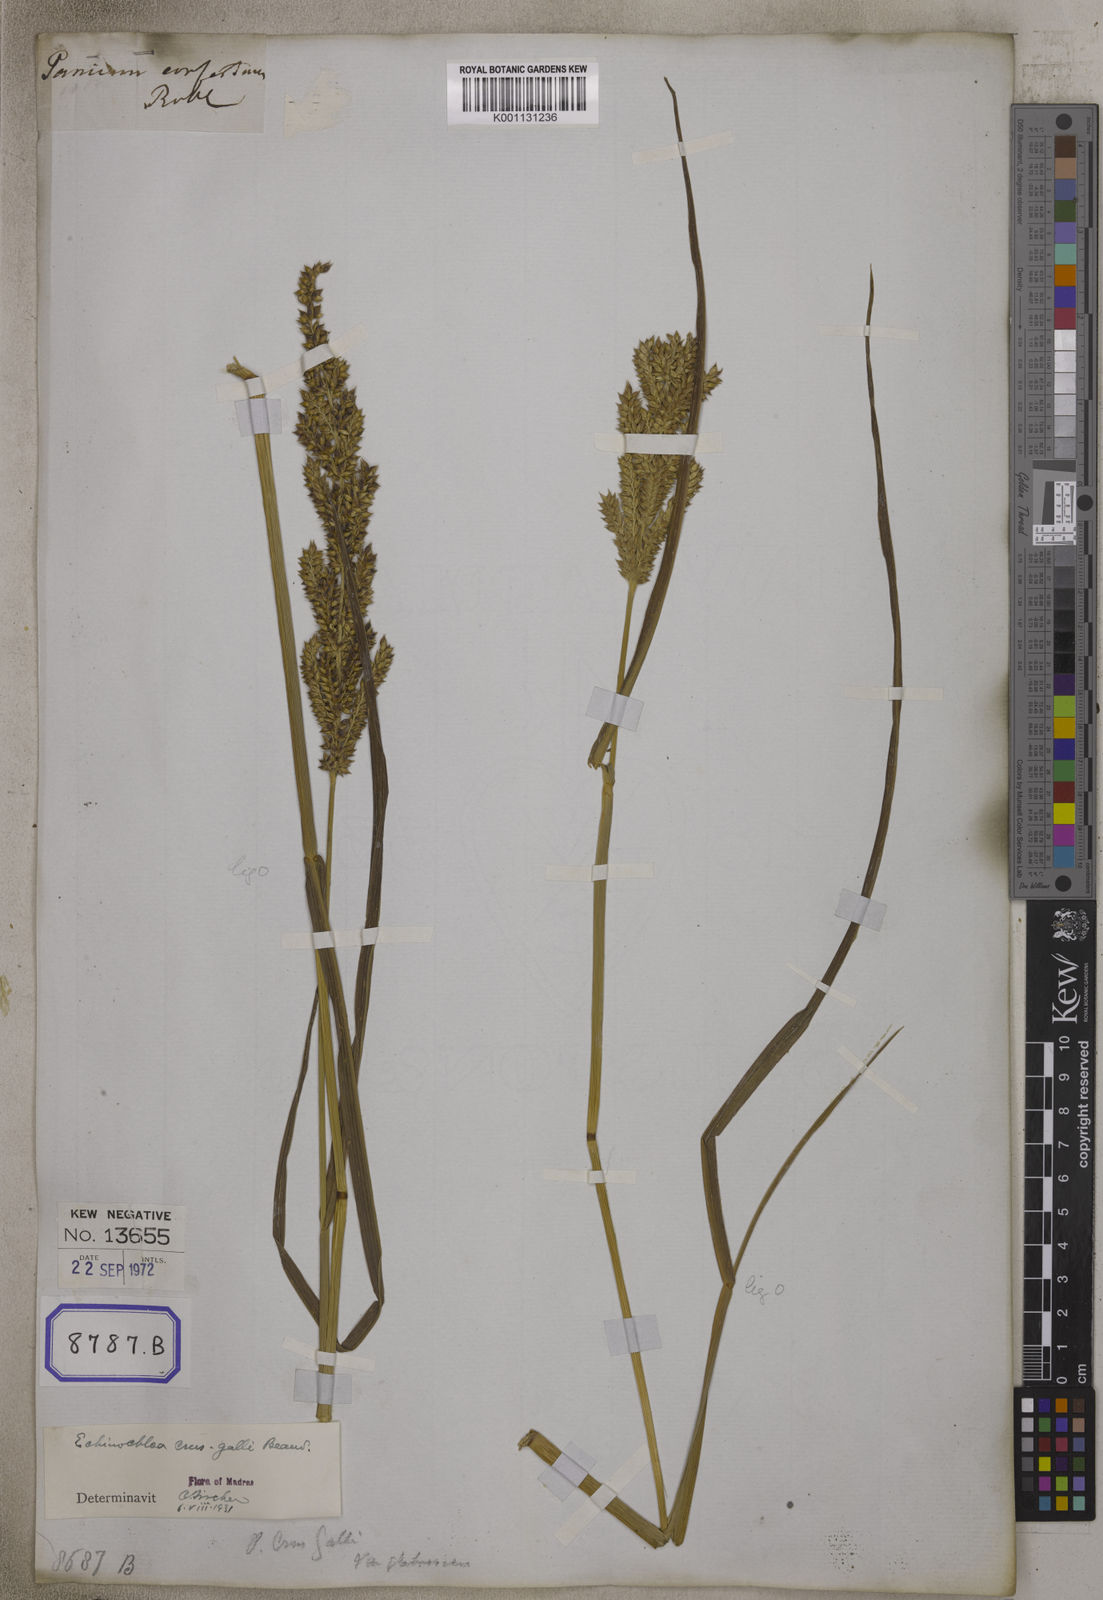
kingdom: Plantae
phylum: Tracheophyta
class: Liliopsida
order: Poales
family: Poaceae
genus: Echinochloa
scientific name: Echinochloa crus-galli
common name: Cockspur
